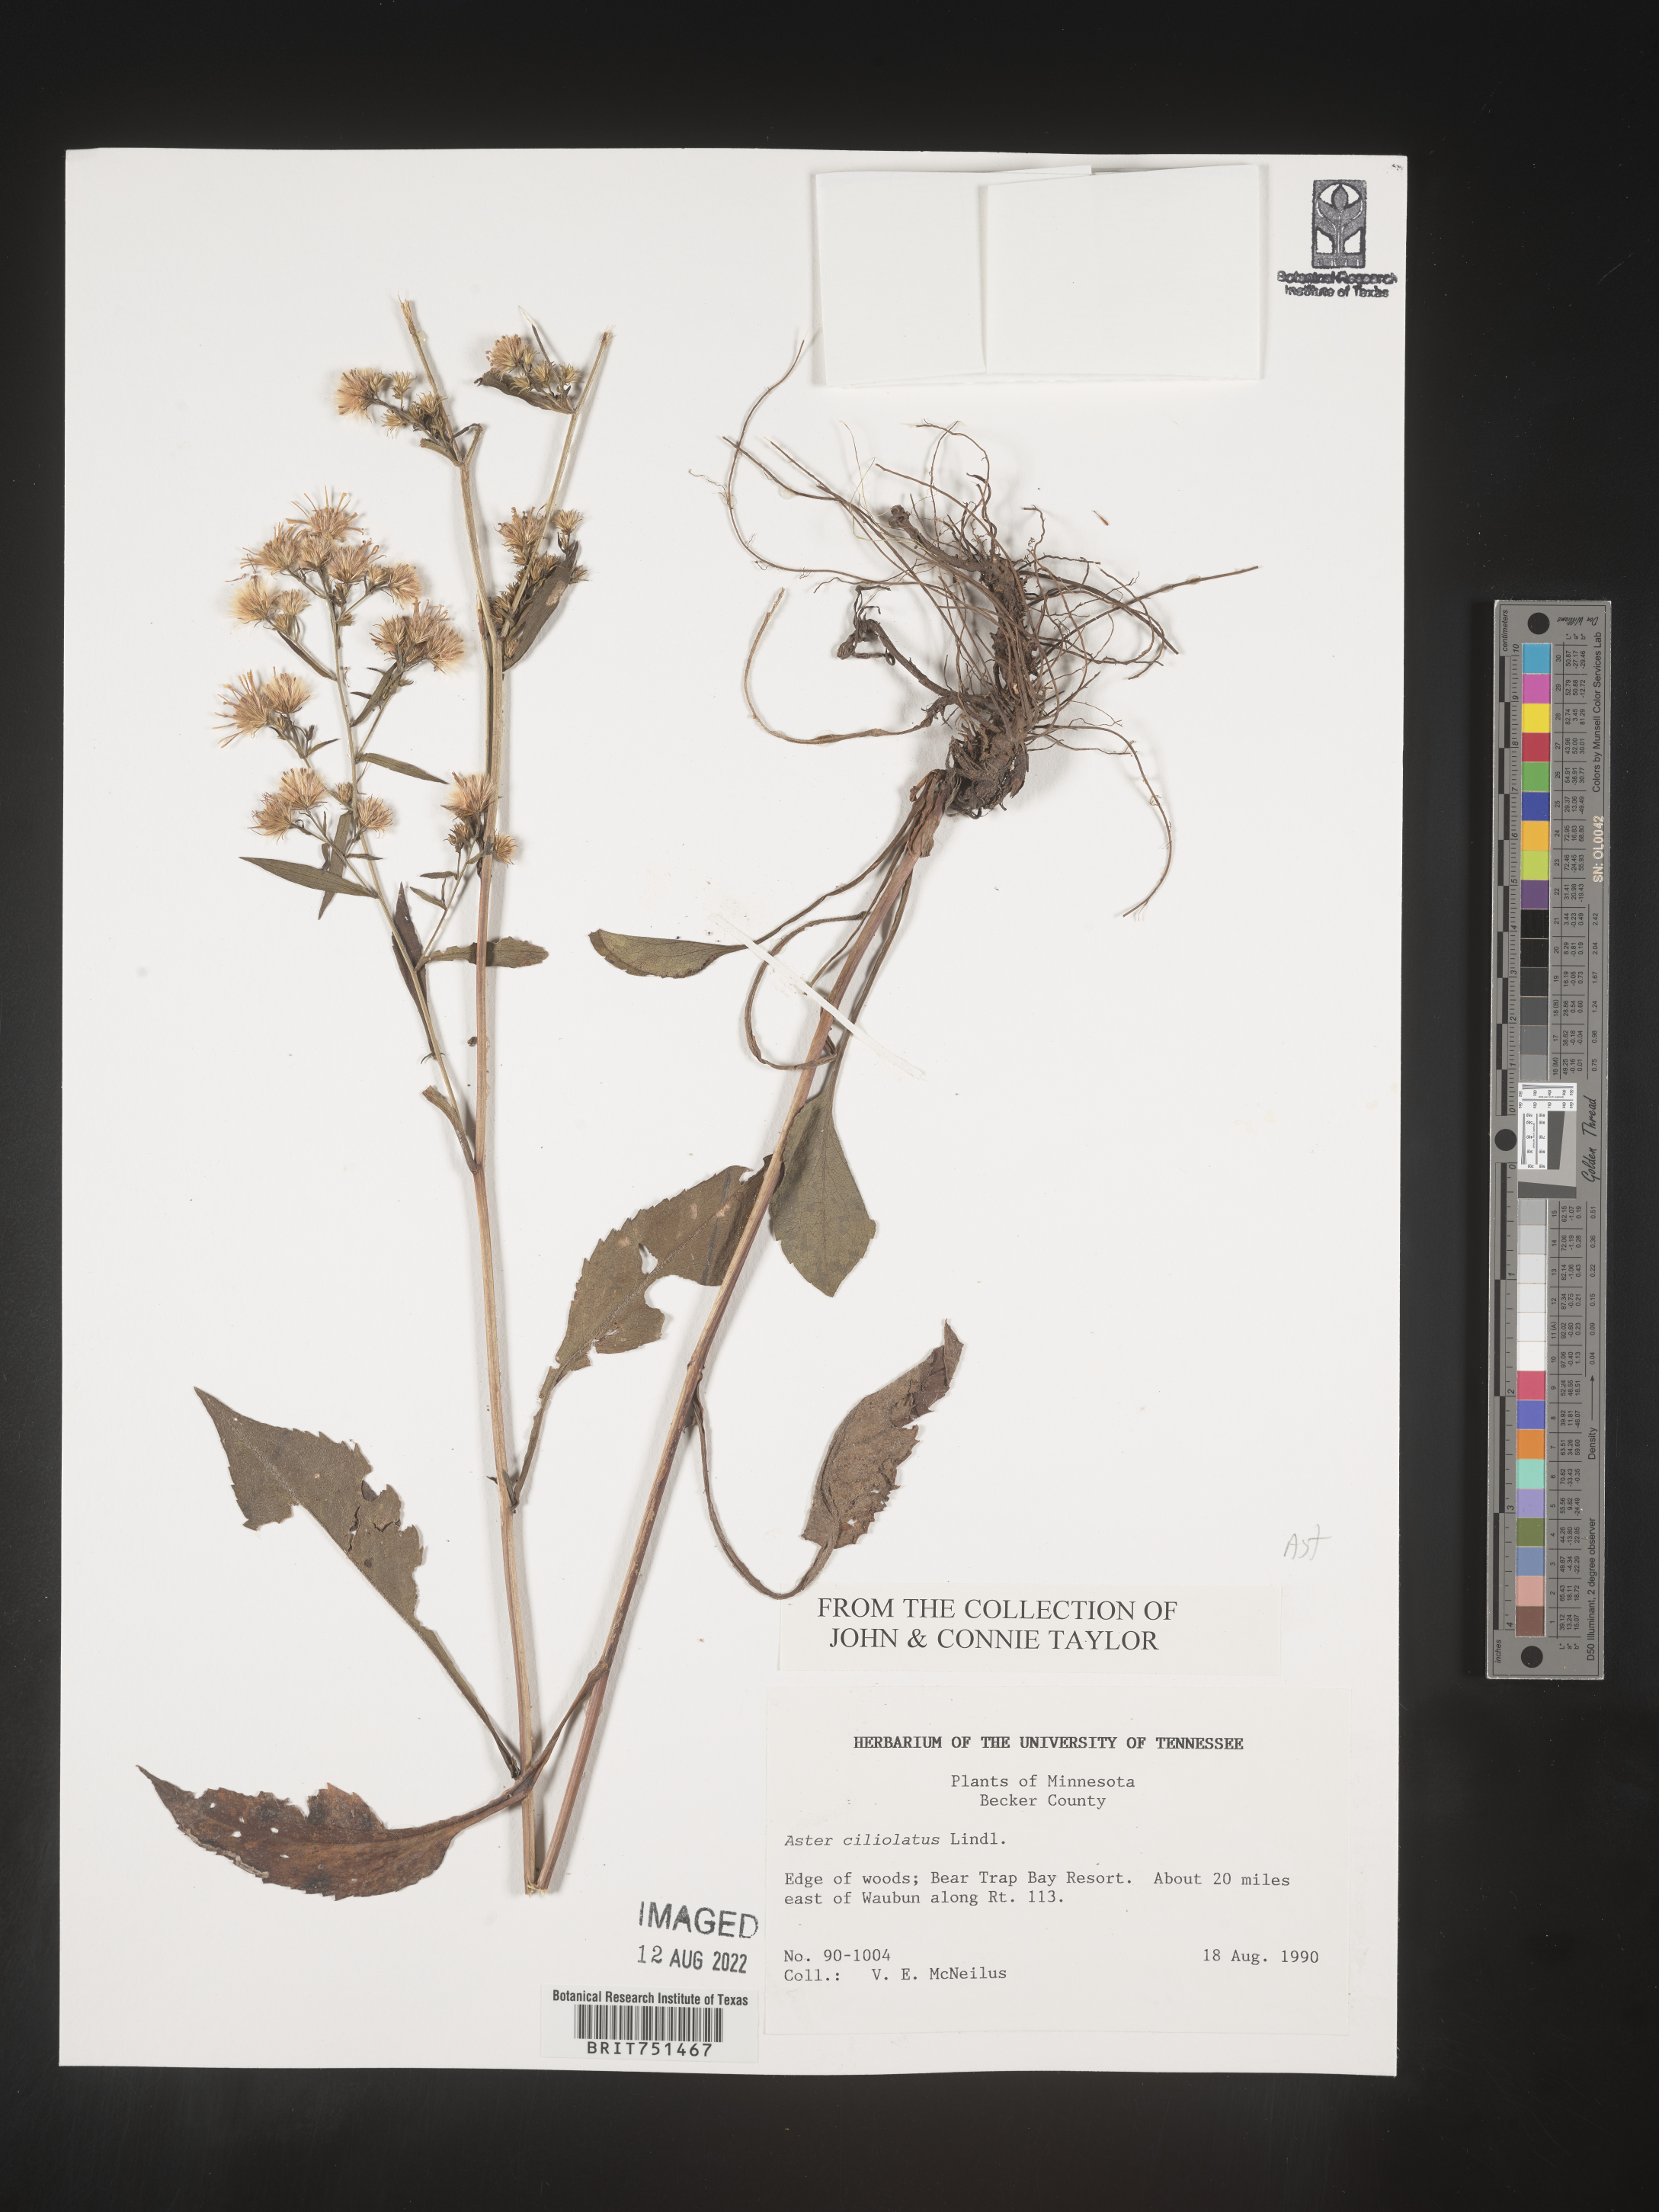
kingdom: Plantae
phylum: Tracheophyta
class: Magnoliopsida
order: Asterales
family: Asteraceae
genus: Symphyotrichum
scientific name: Symphyotrichum ciliolatum
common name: Fringed blue aster
